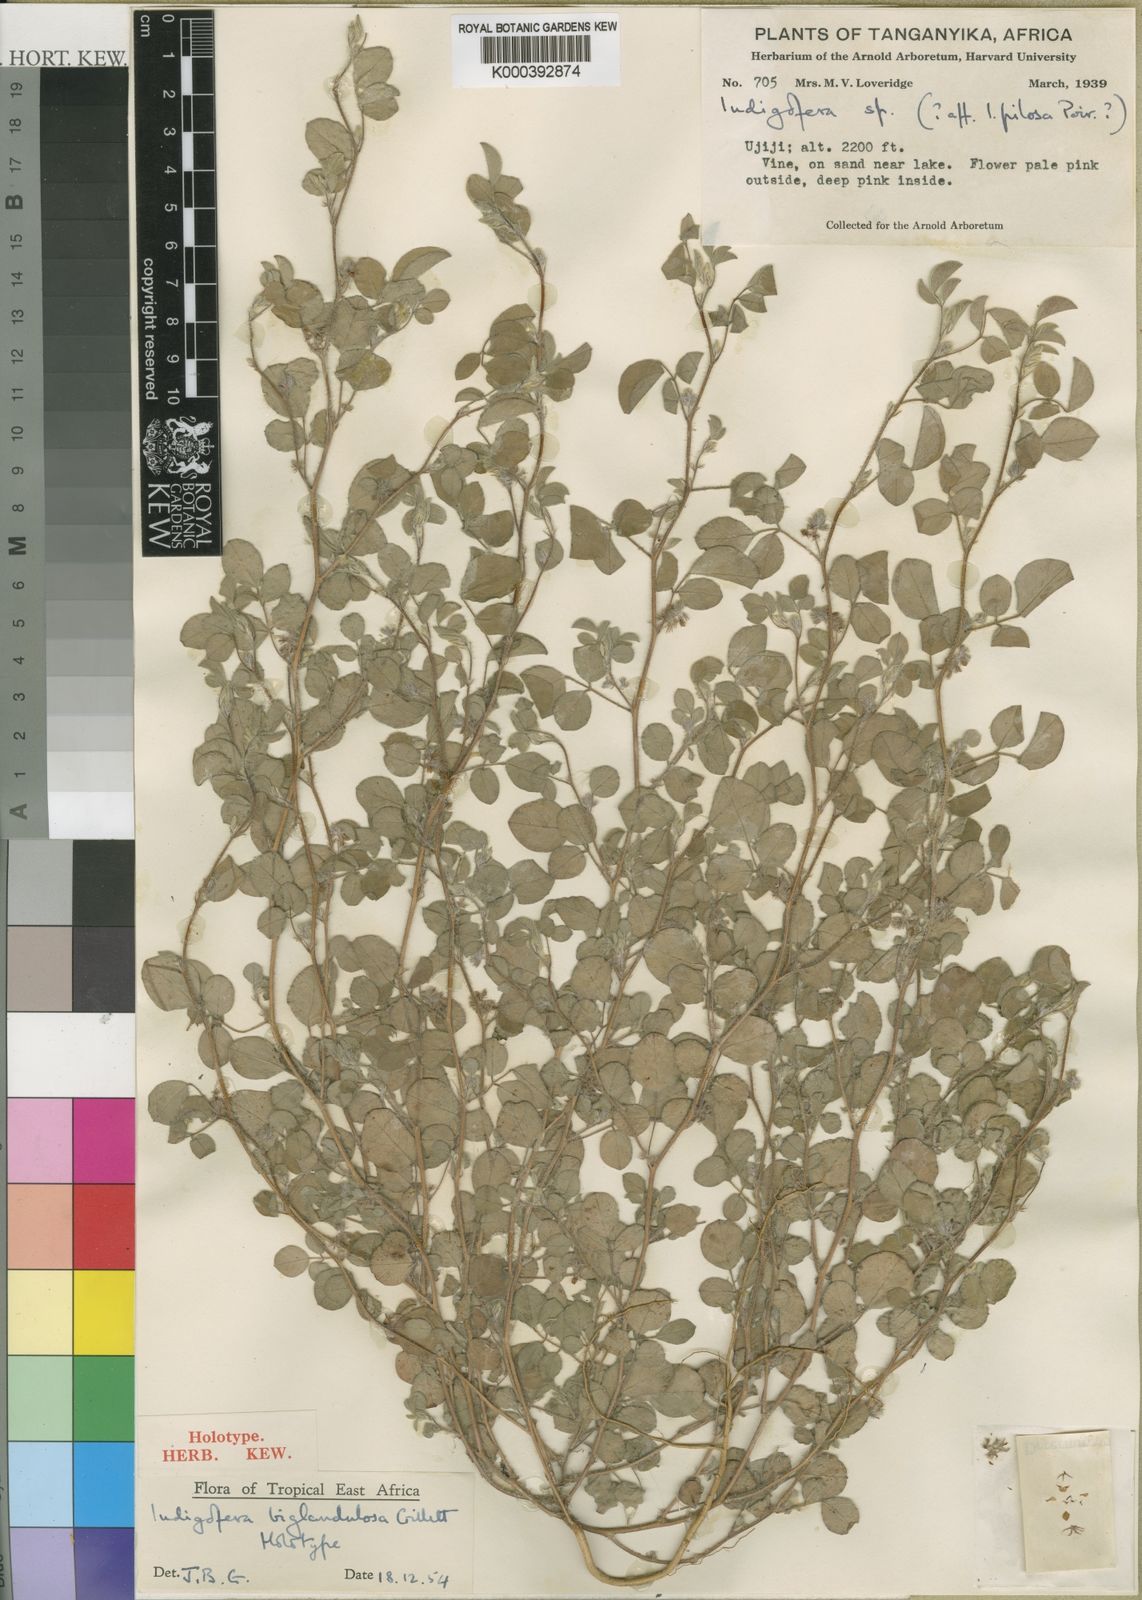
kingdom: Plantae
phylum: Tracheophyta
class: Magnoliopsida
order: Fabales
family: Fabaceae
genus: Indigofera
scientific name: Indigofera biglandulosa
